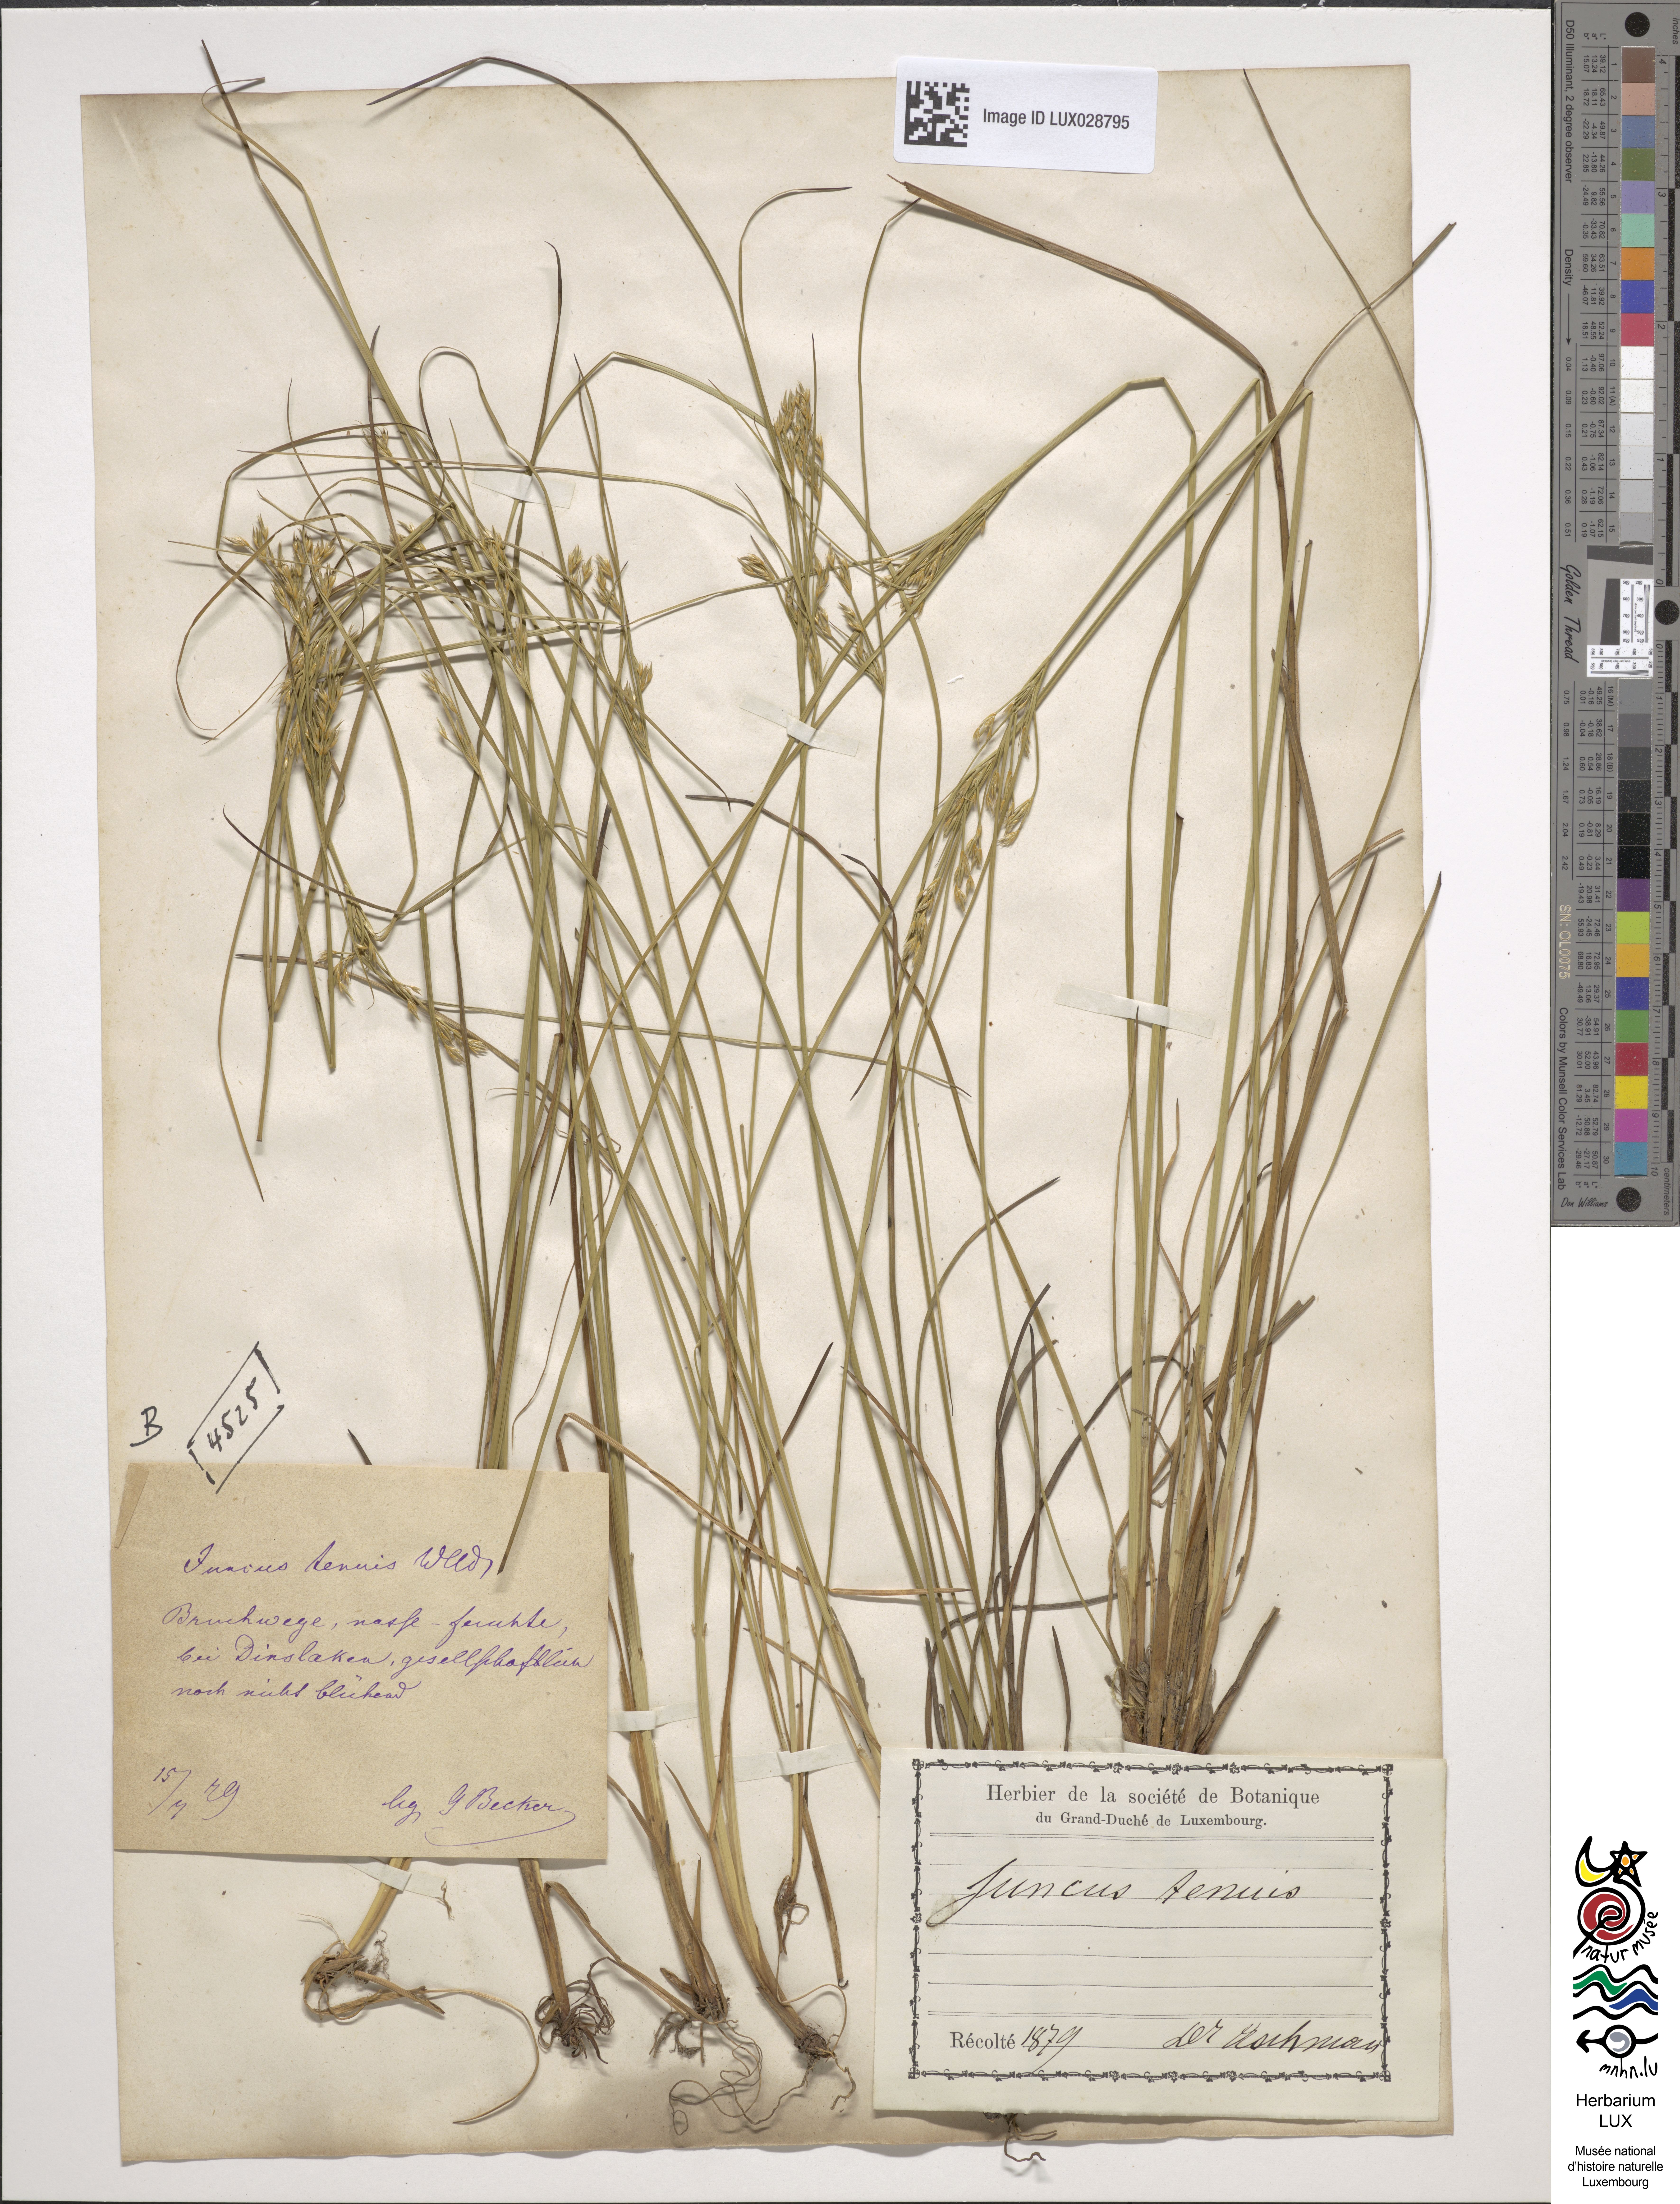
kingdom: Plantae
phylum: Tracheophyta
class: Liliopsida
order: Poales
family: Juncaceae
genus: Juncus
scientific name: Juncus tenuis
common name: Slender rush
